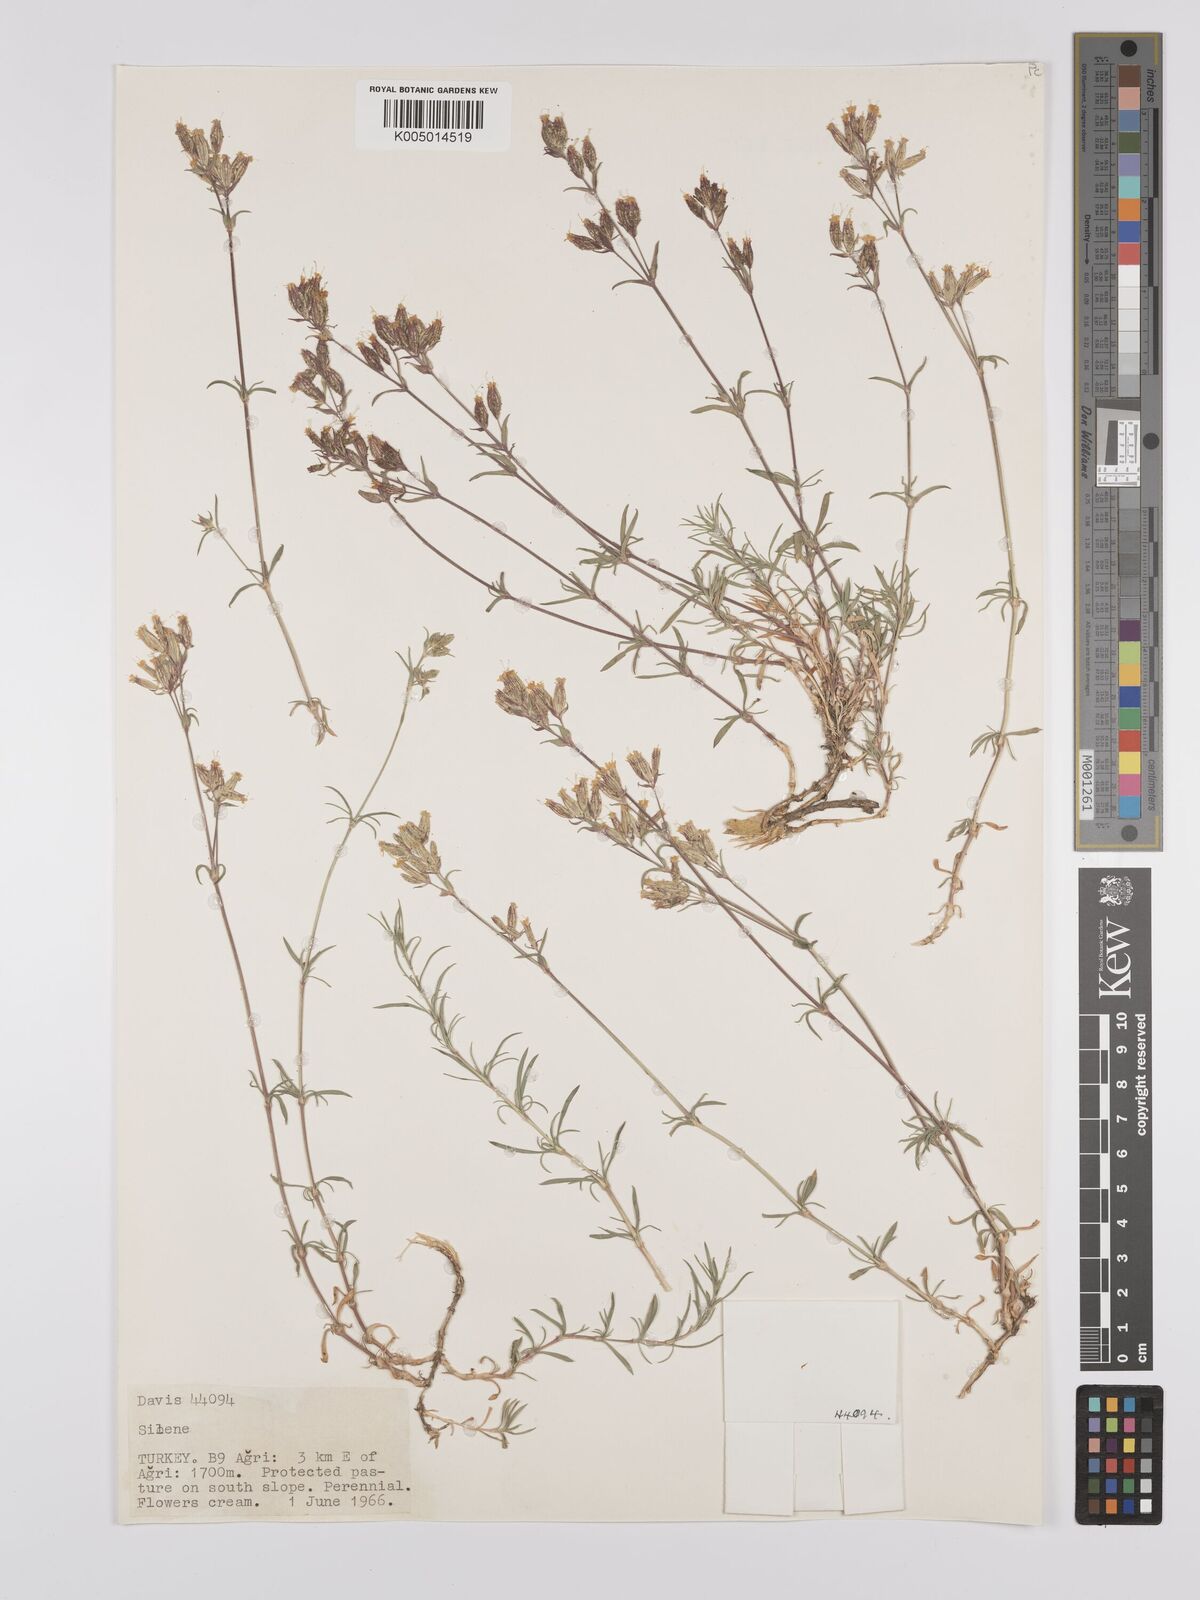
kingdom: Plantae
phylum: Tracheophyta
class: Magnoliopsida
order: Caryophyllales
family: Caryophyllaceae
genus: Silene
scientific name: Silene
